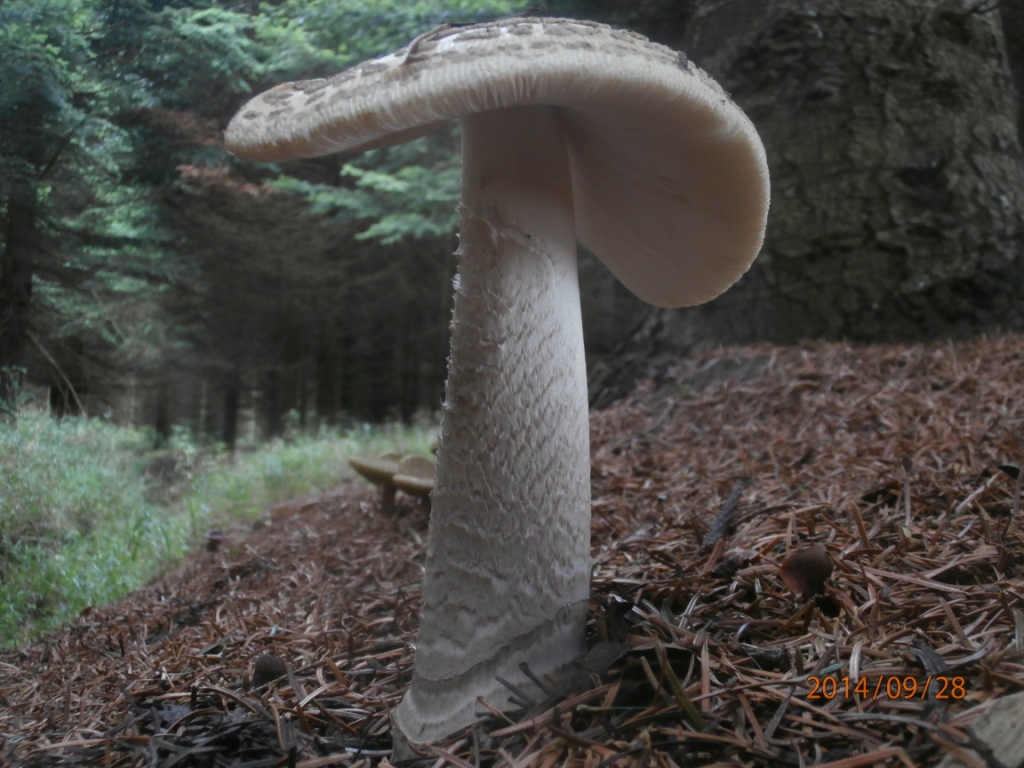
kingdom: Fungi
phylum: Basidiomycota
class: Agaricomycetes
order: Agaricales
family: Amanitaceae
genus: Amanita
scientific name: Amanita ceciliae
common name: stor kam-fluesvamp
